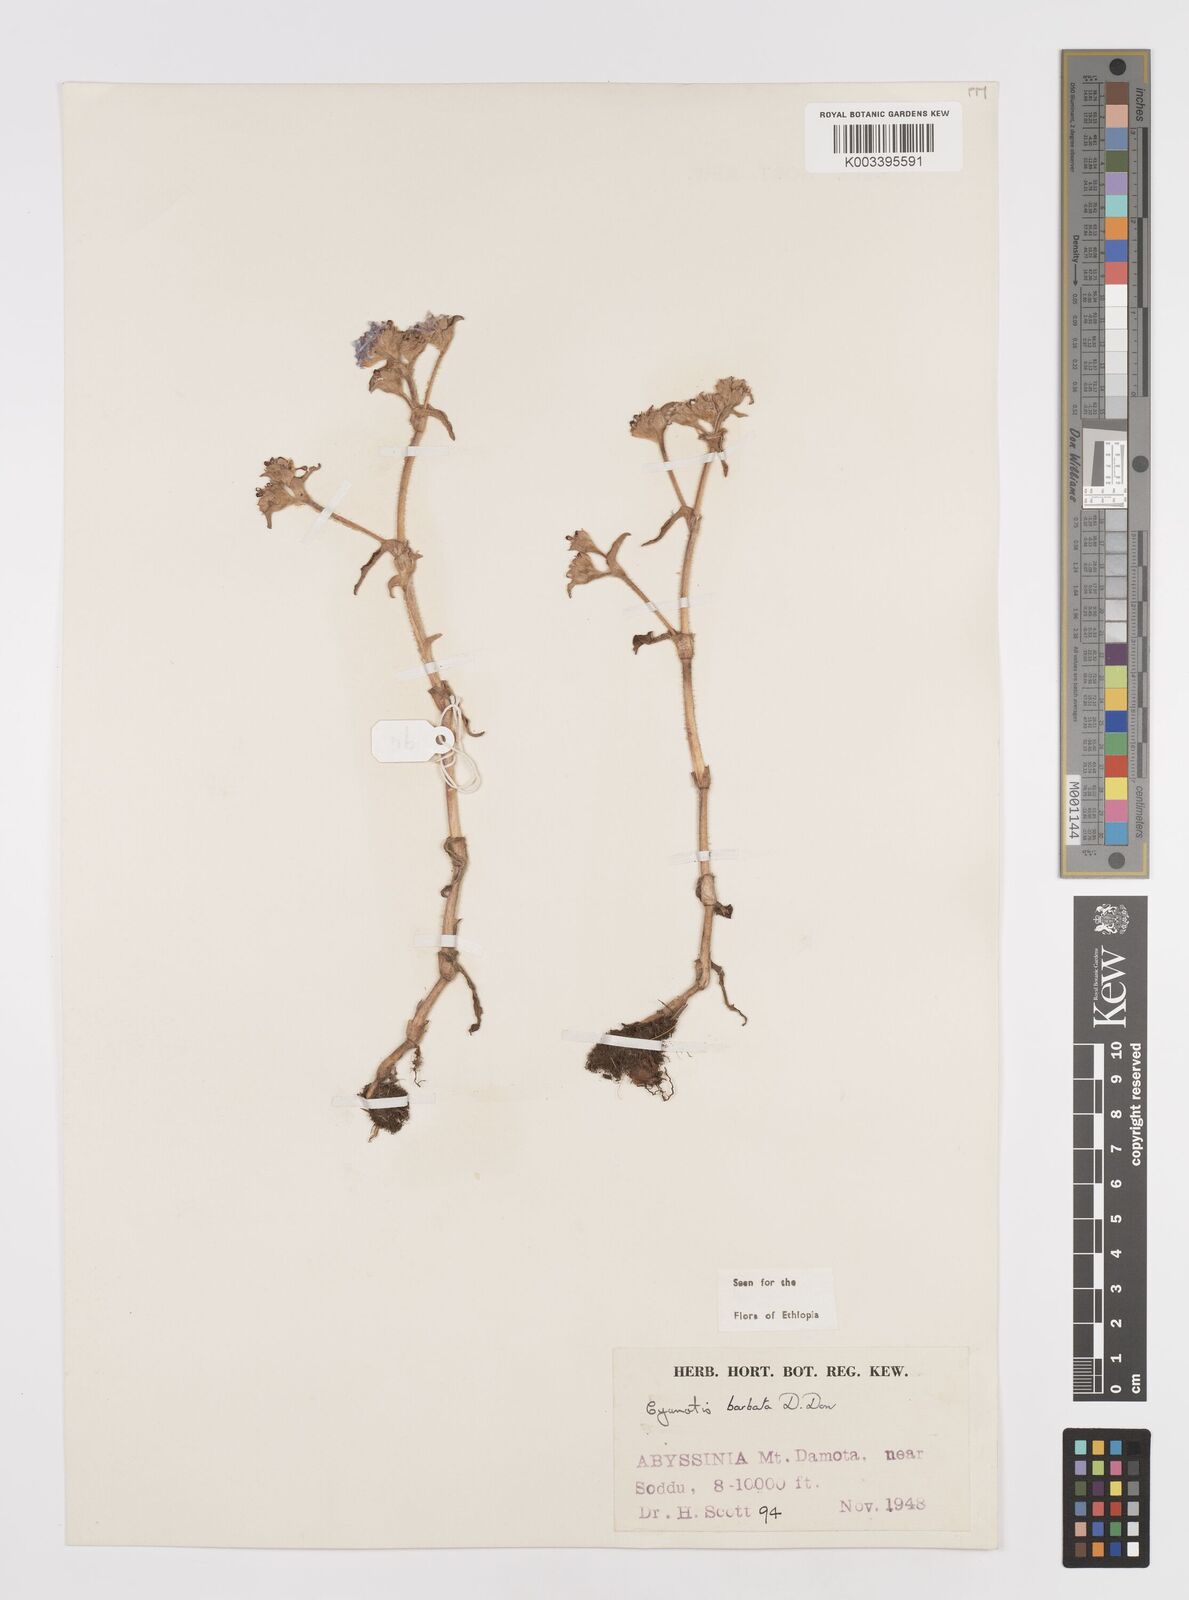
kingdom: Plantae
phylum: Tracheophyta
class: Liliopsida
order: Commelinales
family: Commelinaceae
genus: Cyanotis
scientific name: Cyanotis vaga
